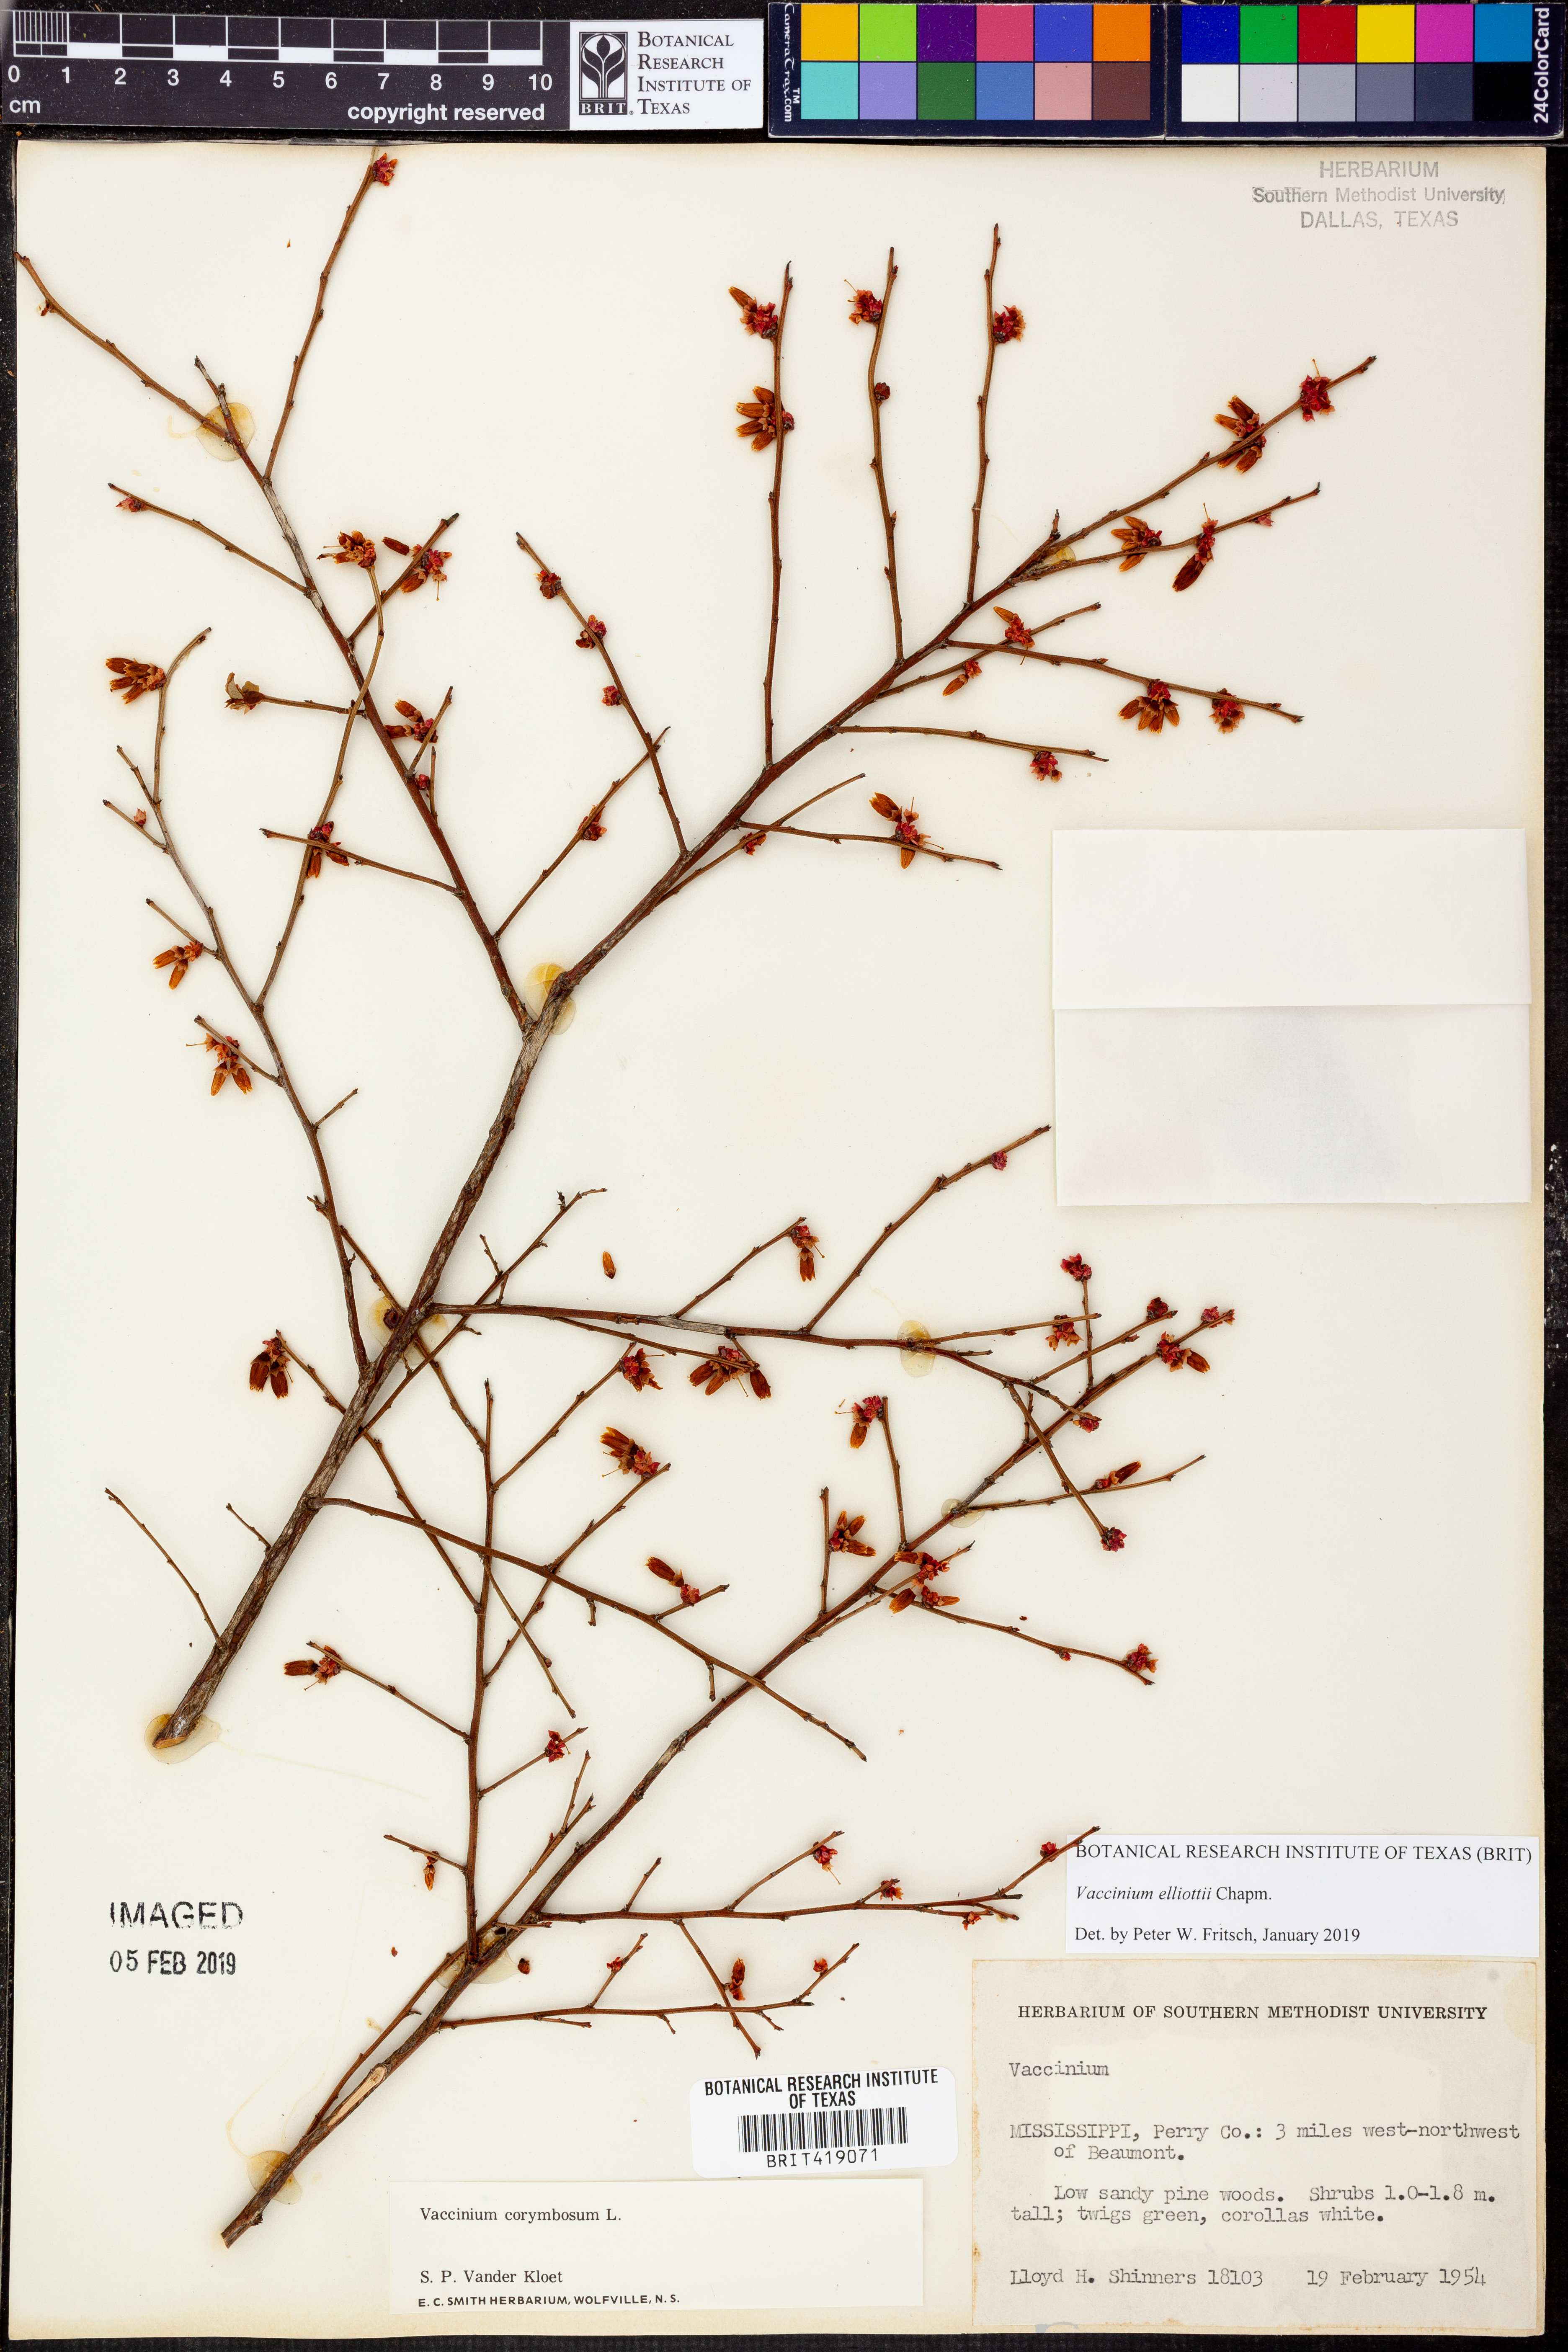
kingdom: Plantae
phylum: Tracheophyta
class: Magnoliopsida
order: Ericales
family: Ericaceae
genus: Vaccinium
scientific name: Vaccinium corymbosum
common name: Blueberry
